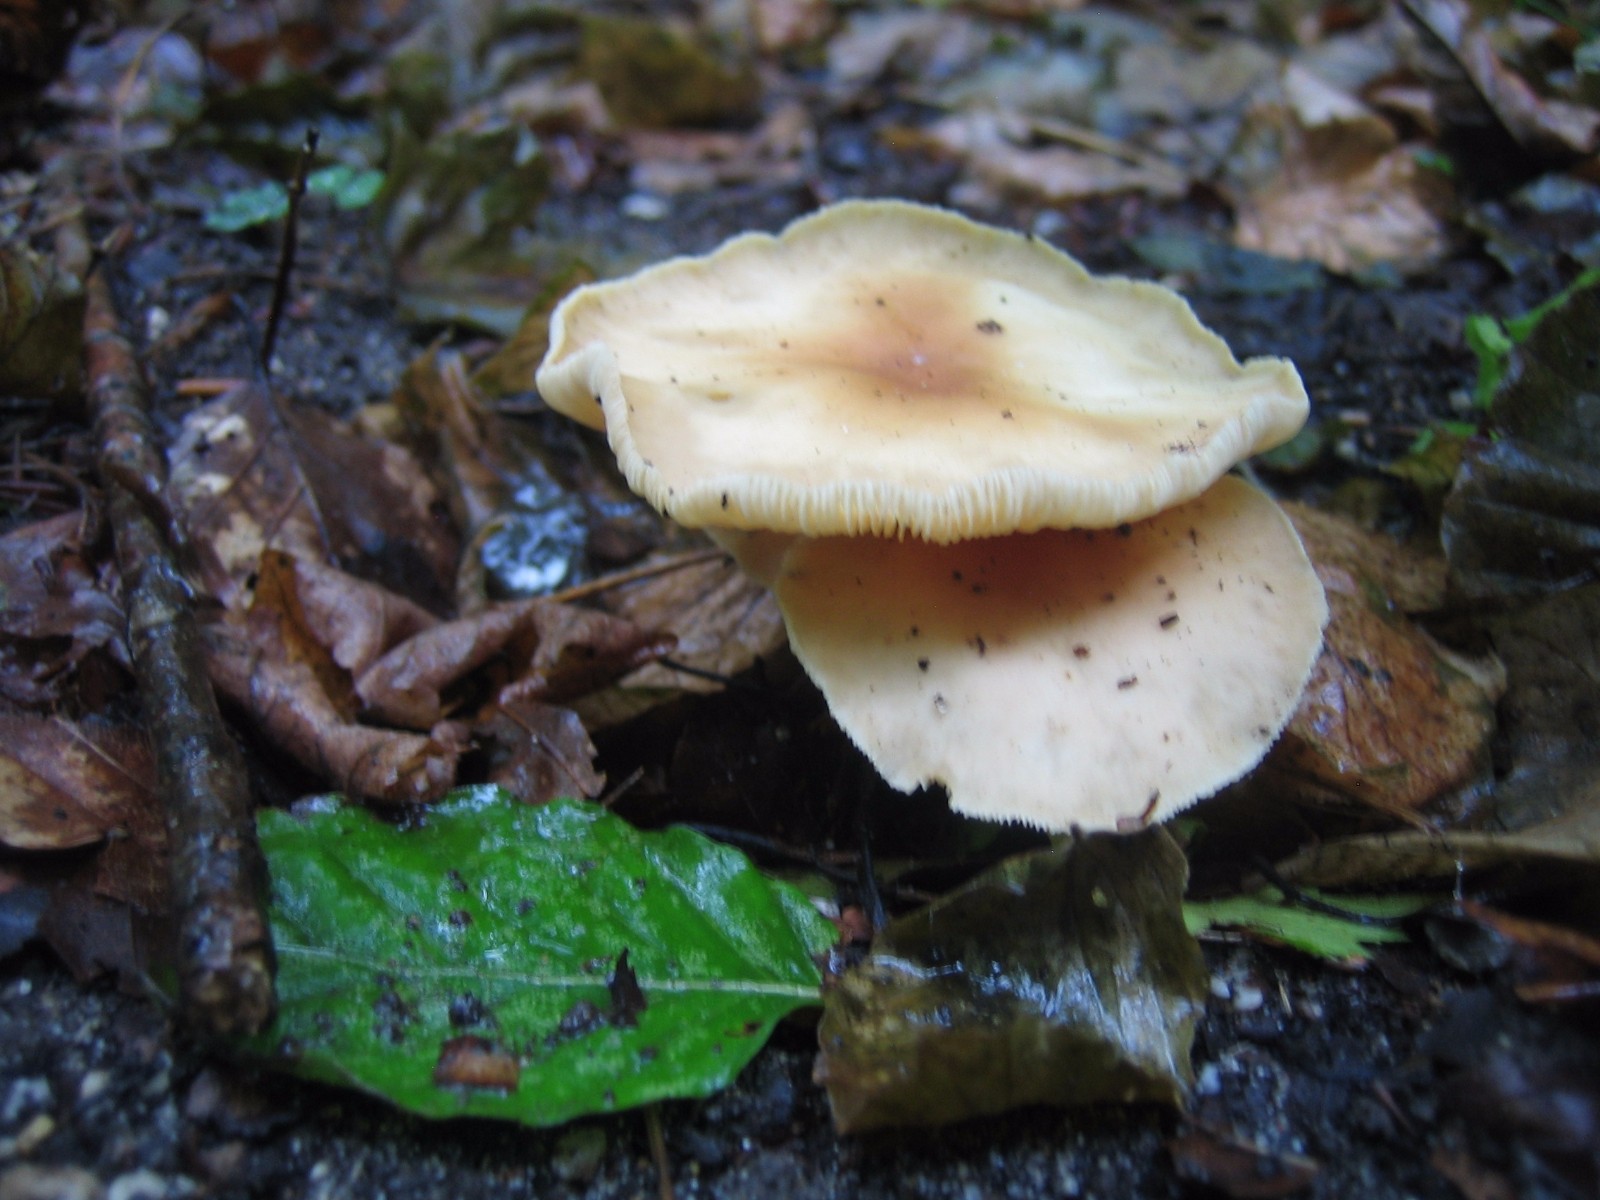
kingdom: Fungi
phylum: Basidiomycota
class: Agaricomycetes
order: Agaricales
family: Omphalotaceae
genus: Gymnopus
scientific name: Gymnopus dryophilus
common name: løv-fladhat
